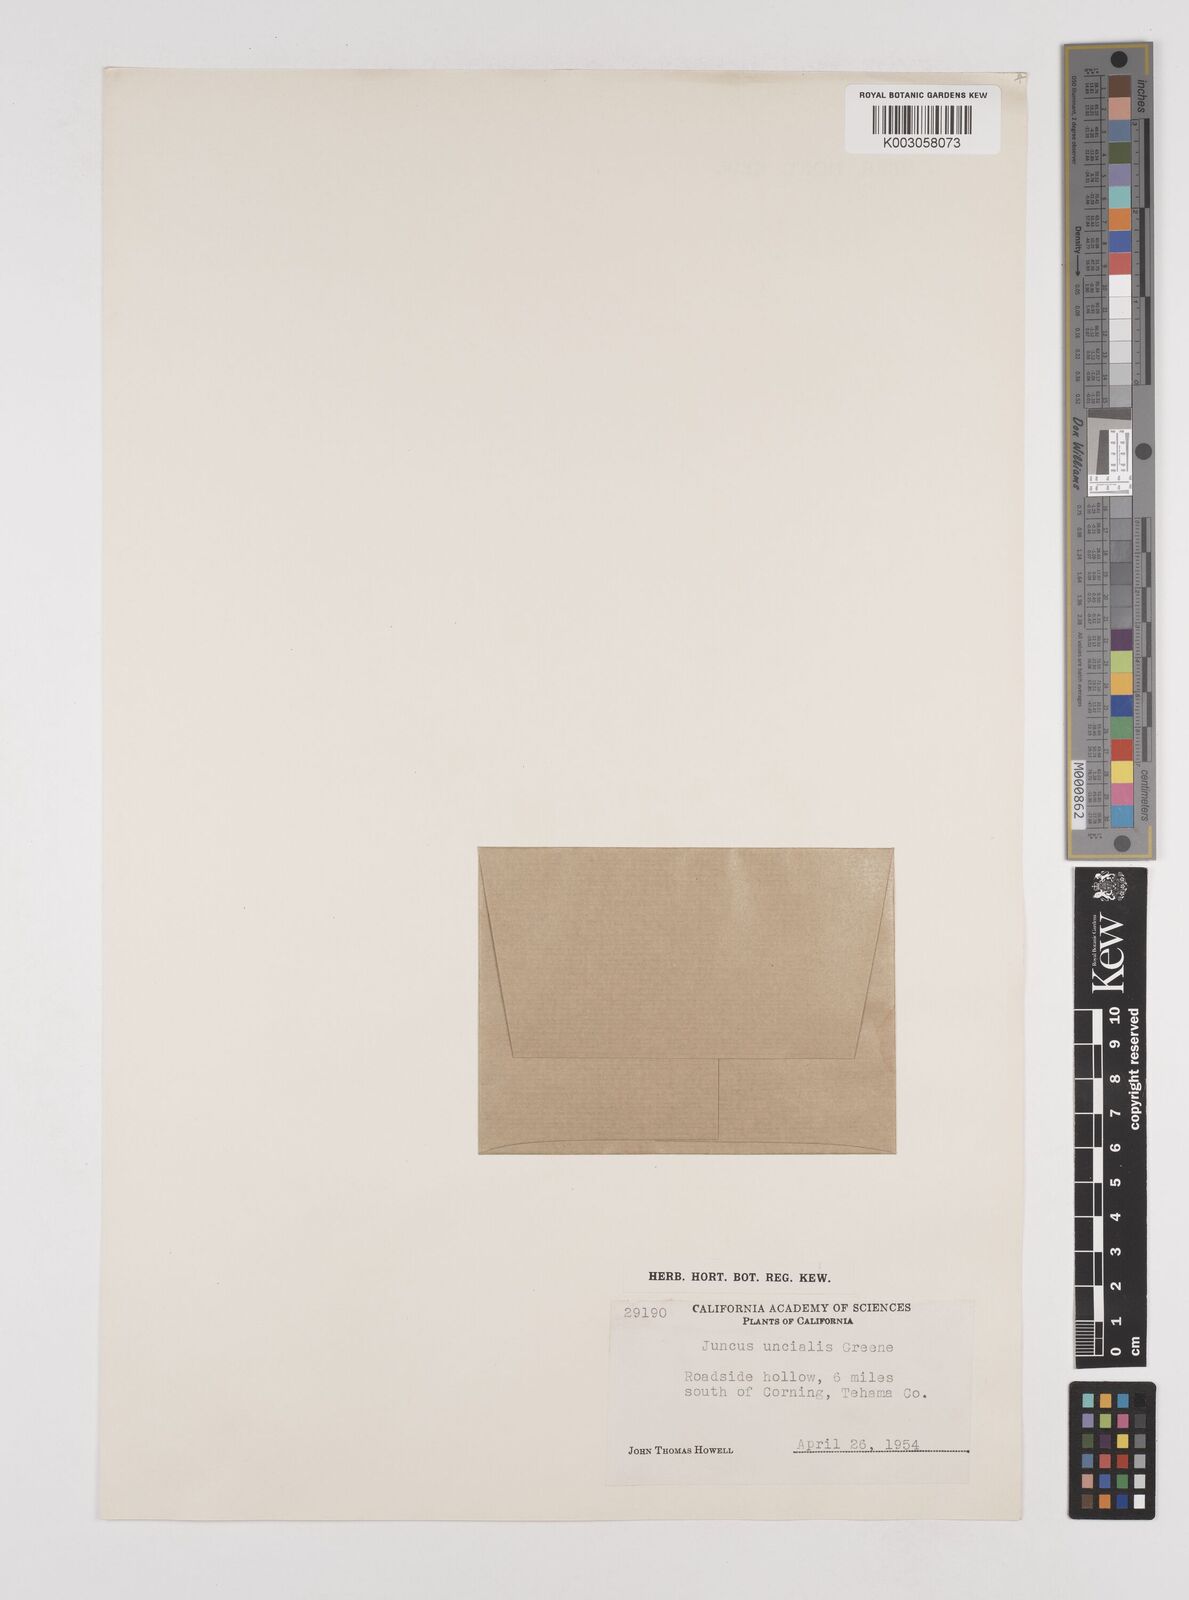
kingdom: Plantae
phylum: Tracheophyta
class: Liliopsida
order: Poales
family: Juncaceae
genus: Juncus
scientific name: Juncus uncialis
